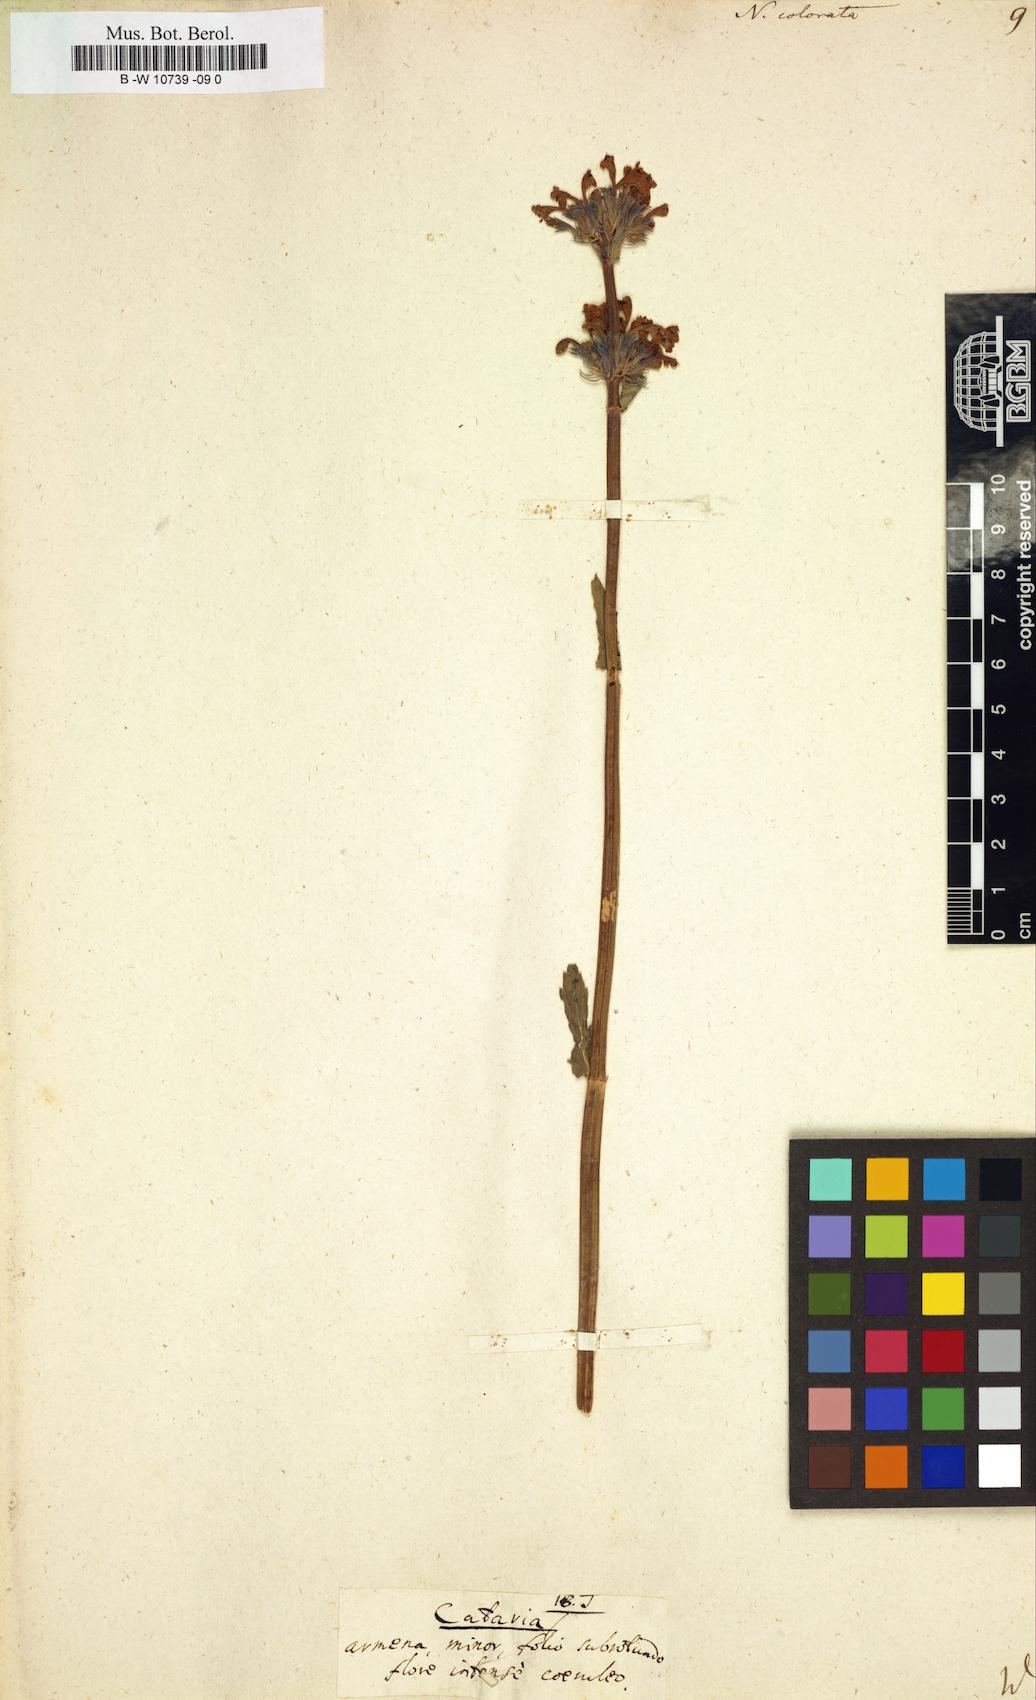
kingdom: Plantae
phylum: Tracheophyta
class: Magnoliopsida
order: Lamiales
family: Lamiaceae
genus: Nepeta
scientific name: Nepeta grandiflora
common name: Caucasus catmint
